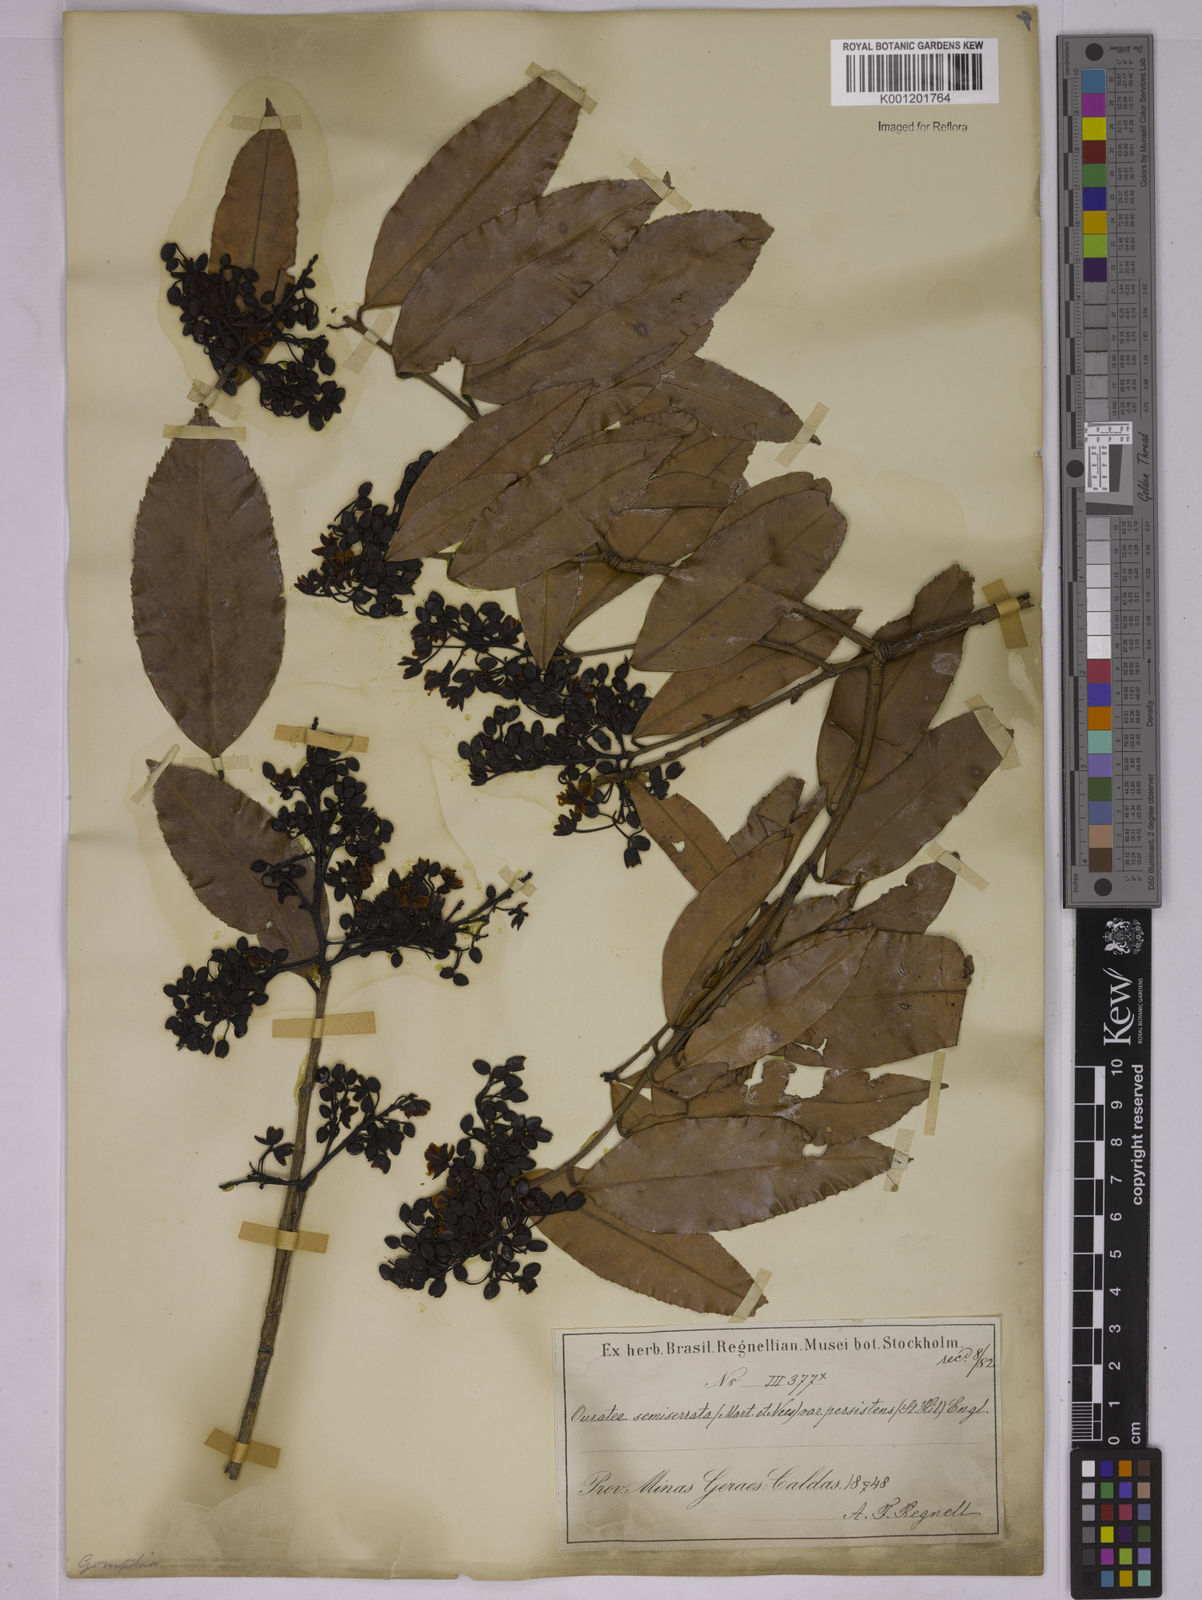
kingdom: Plantae
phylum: Tracheophyta
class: Magnoliopsida
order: Malpighiales
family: Ochnaceae
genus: Ouratea
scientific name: Ouratea semiserrata
